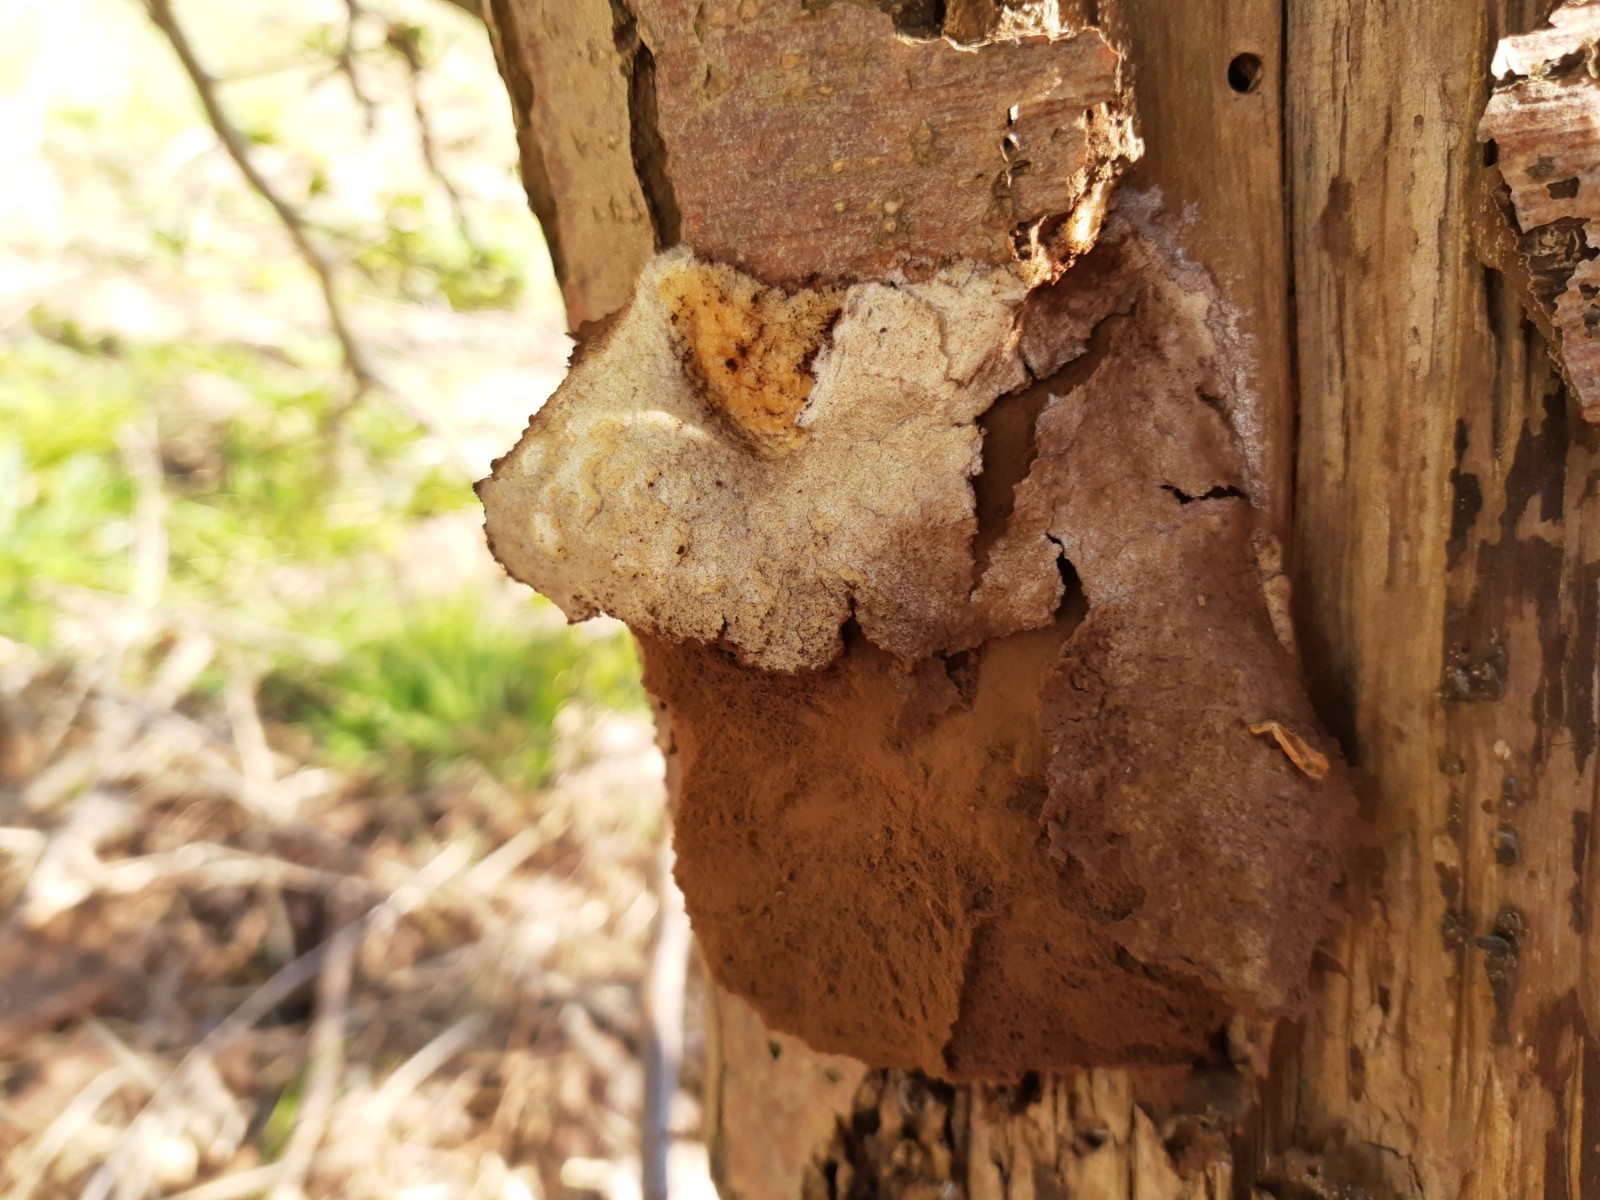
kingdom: Protozoa
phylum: Mycetozoa
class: Myxomycetes
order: Cribrariales
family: Tubiferaceae
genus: Reticularia
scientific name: Reticularia lycoperdon
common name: skinnende støvpude
